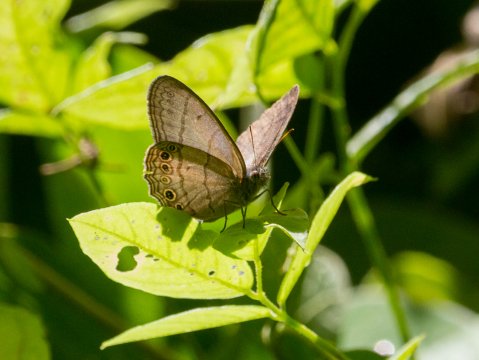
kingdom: Animalia
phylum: Arthropoda
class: Insecta
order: Lepidoptera
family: Satyridae
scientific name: Satyridae
